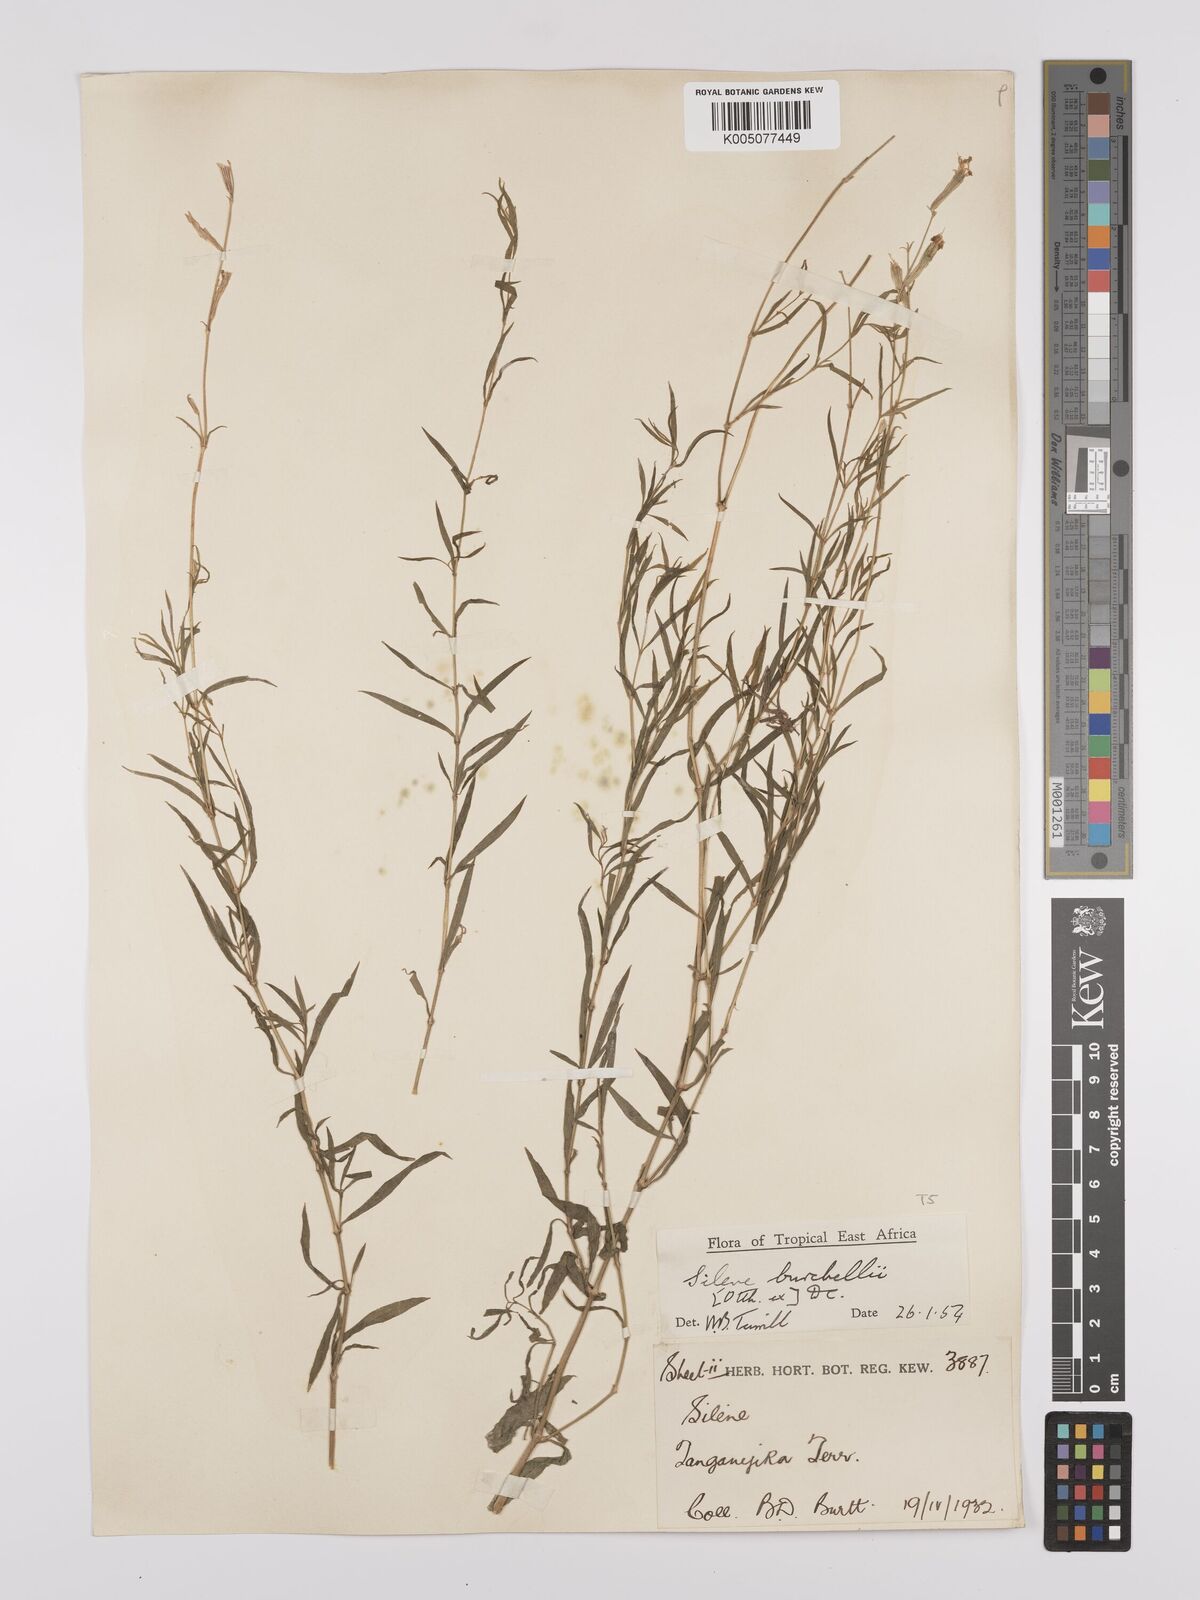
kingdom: Plantae
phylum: Tracheophyta
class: Magnoliopsida
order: Caryophyllales
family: Caryophyllaceae
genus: Silene
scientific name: Silene burchellii
